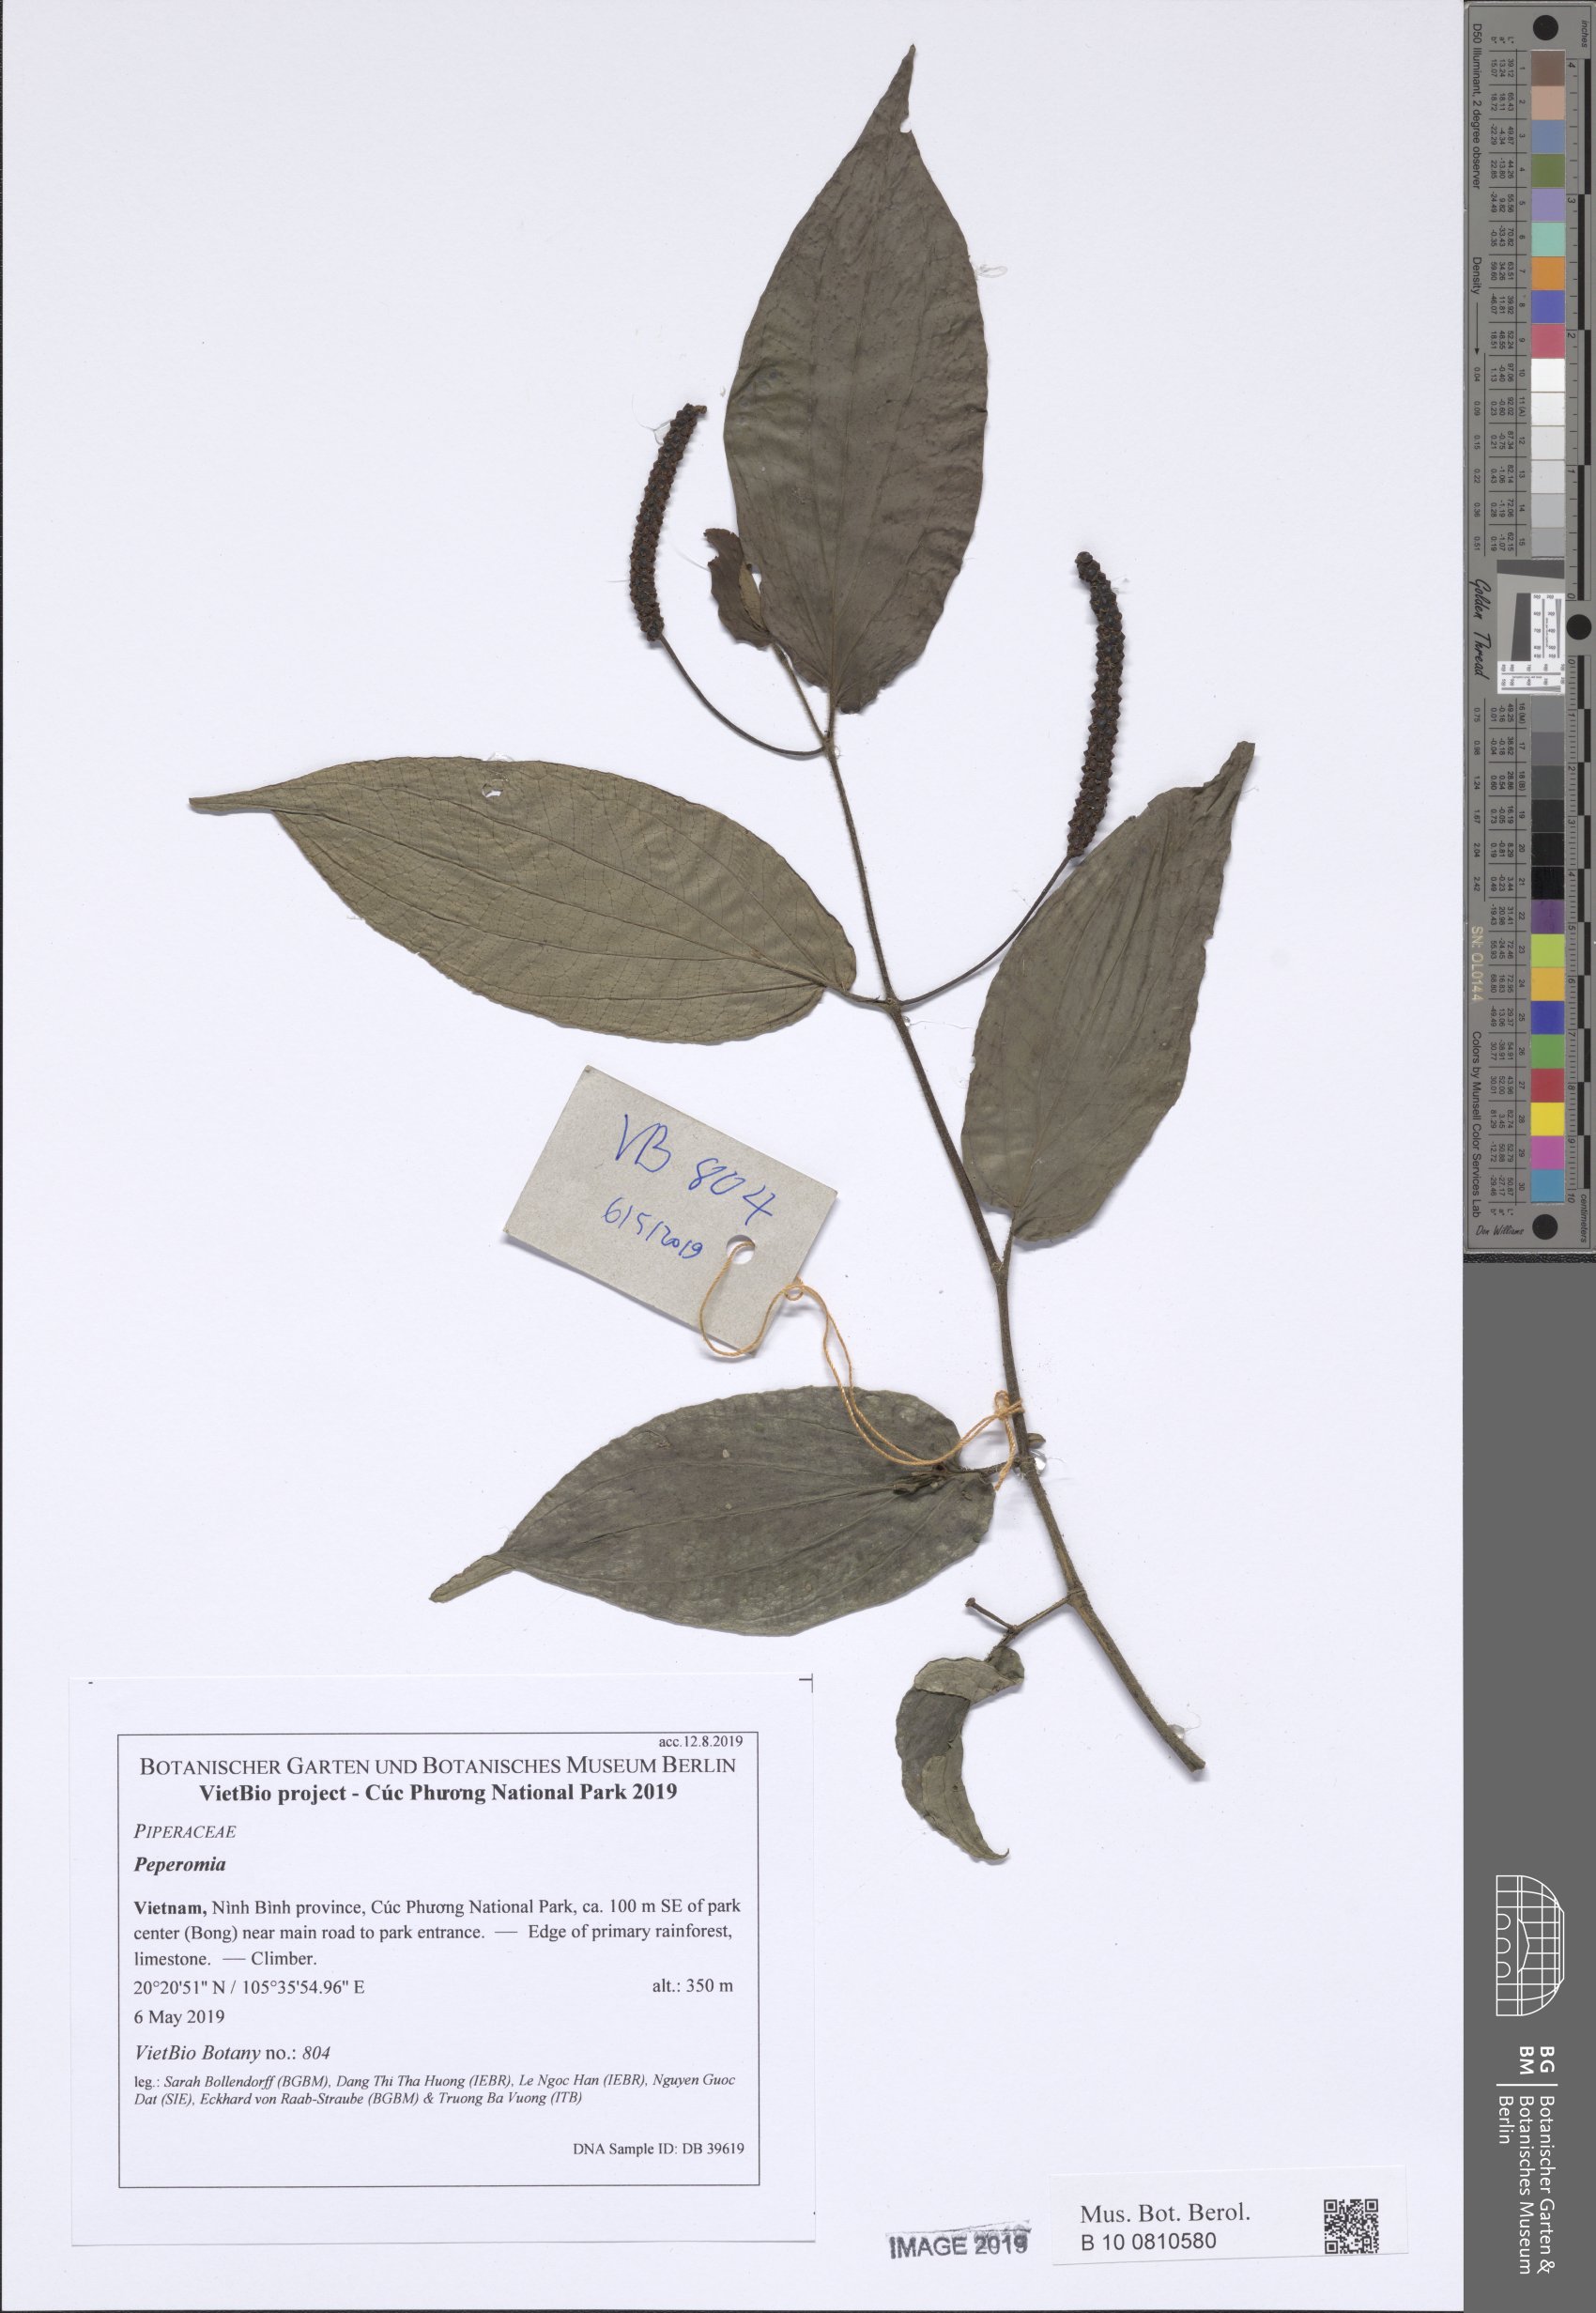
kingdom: Plantae
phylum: Tracheophyta
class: Magnoliopsida
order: Piperales
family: Piperaceae
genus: Piper
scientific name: Piper
